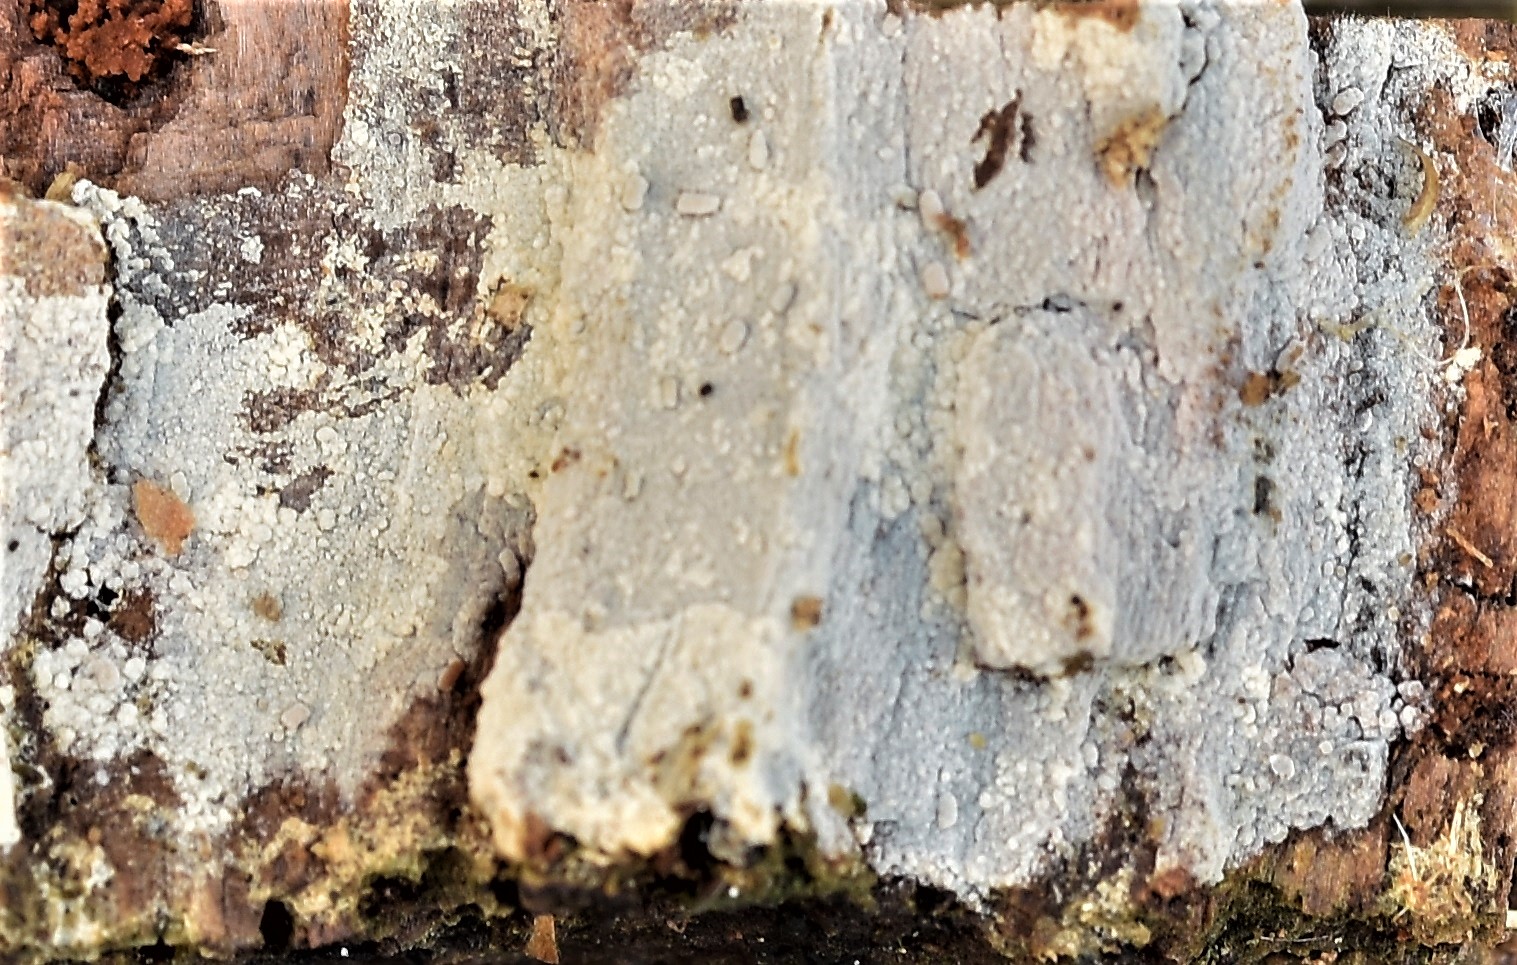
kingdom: Fungi
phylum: Basidiomycota
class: Agaricomycetes
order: Hymenochaetales
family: Hyphodontiaceae
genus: Hyphodontia
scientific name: Hyphodontia pallidula
